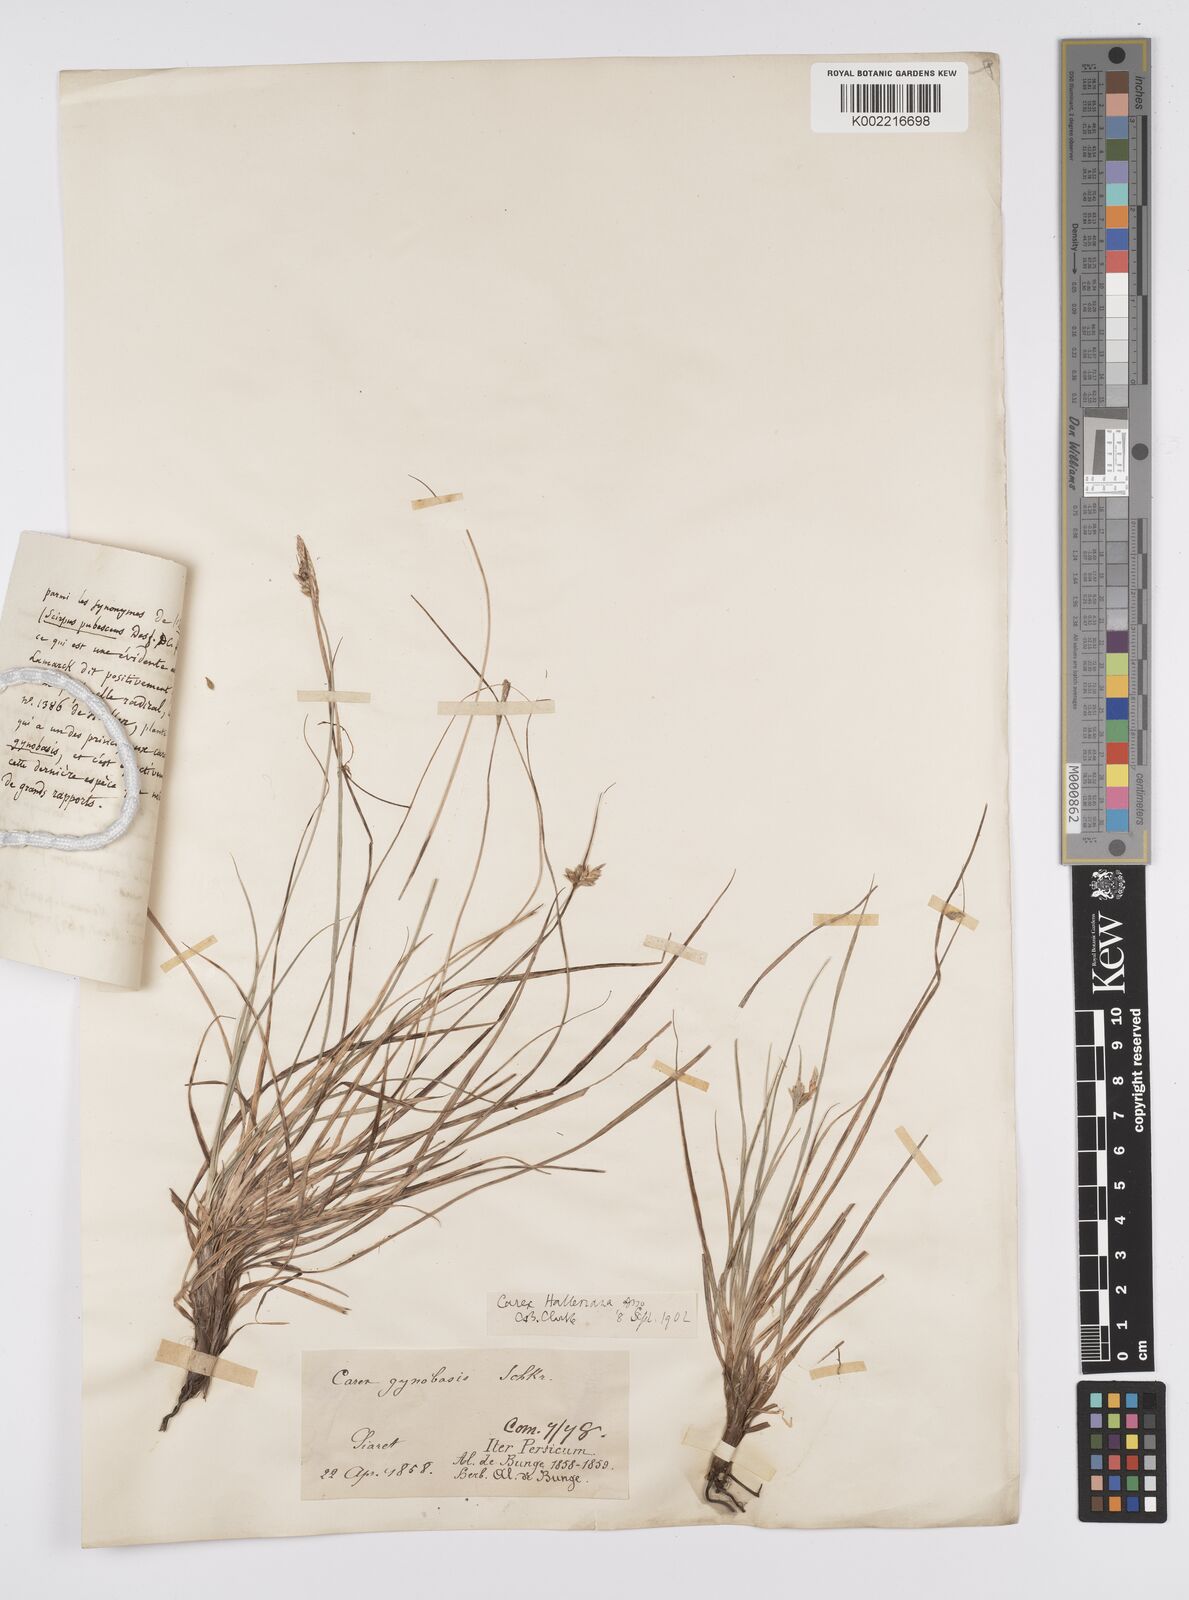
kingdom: Plantae
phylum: Tracheophyta
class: Liliopsida
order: Poales
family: Cyperaceae
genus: Carex
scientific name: Carex halleriana
